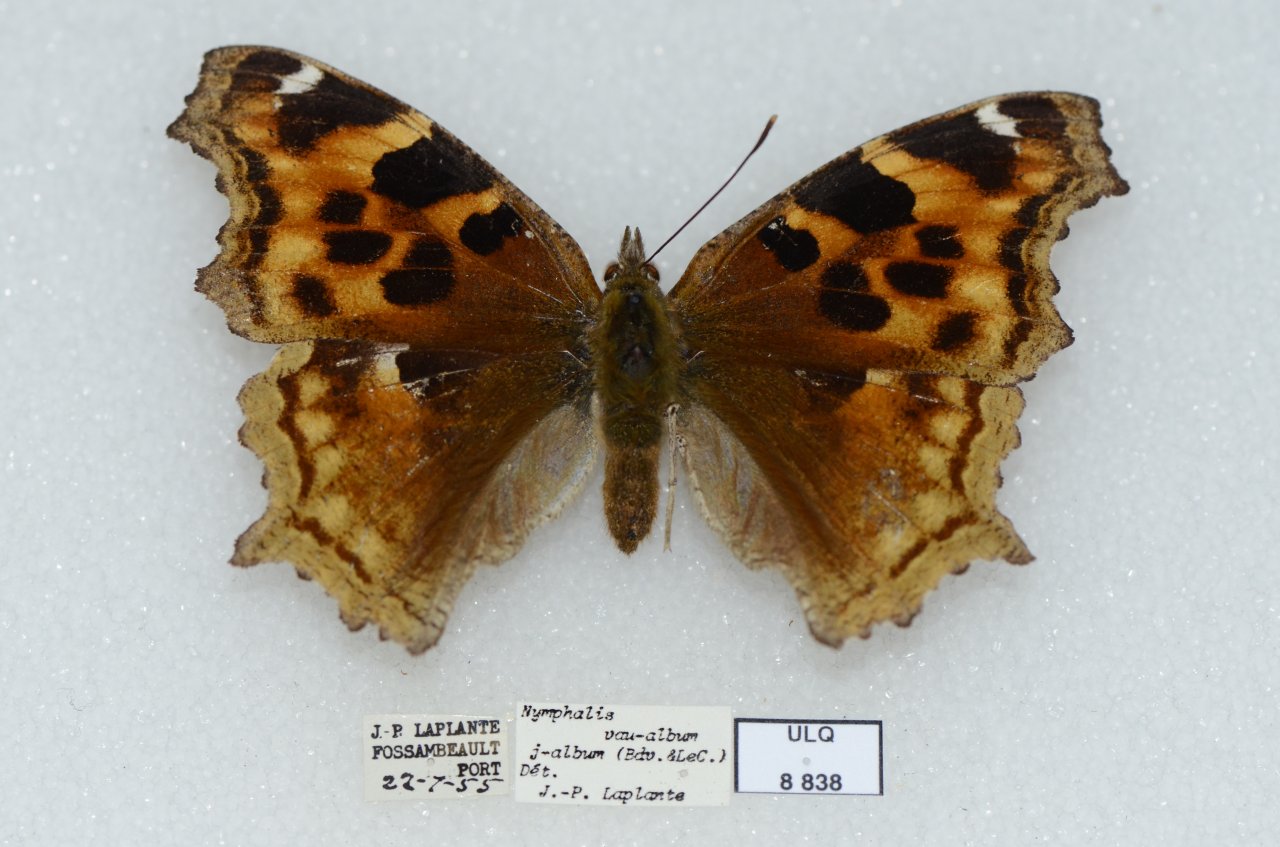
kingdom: Animalia
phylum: Arthropoda
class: Insecta
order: Lepidoptera
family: Nymphalidae
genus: Polygonia
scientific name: Polygonia vaualbum
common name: Compton Tortoiseshell
